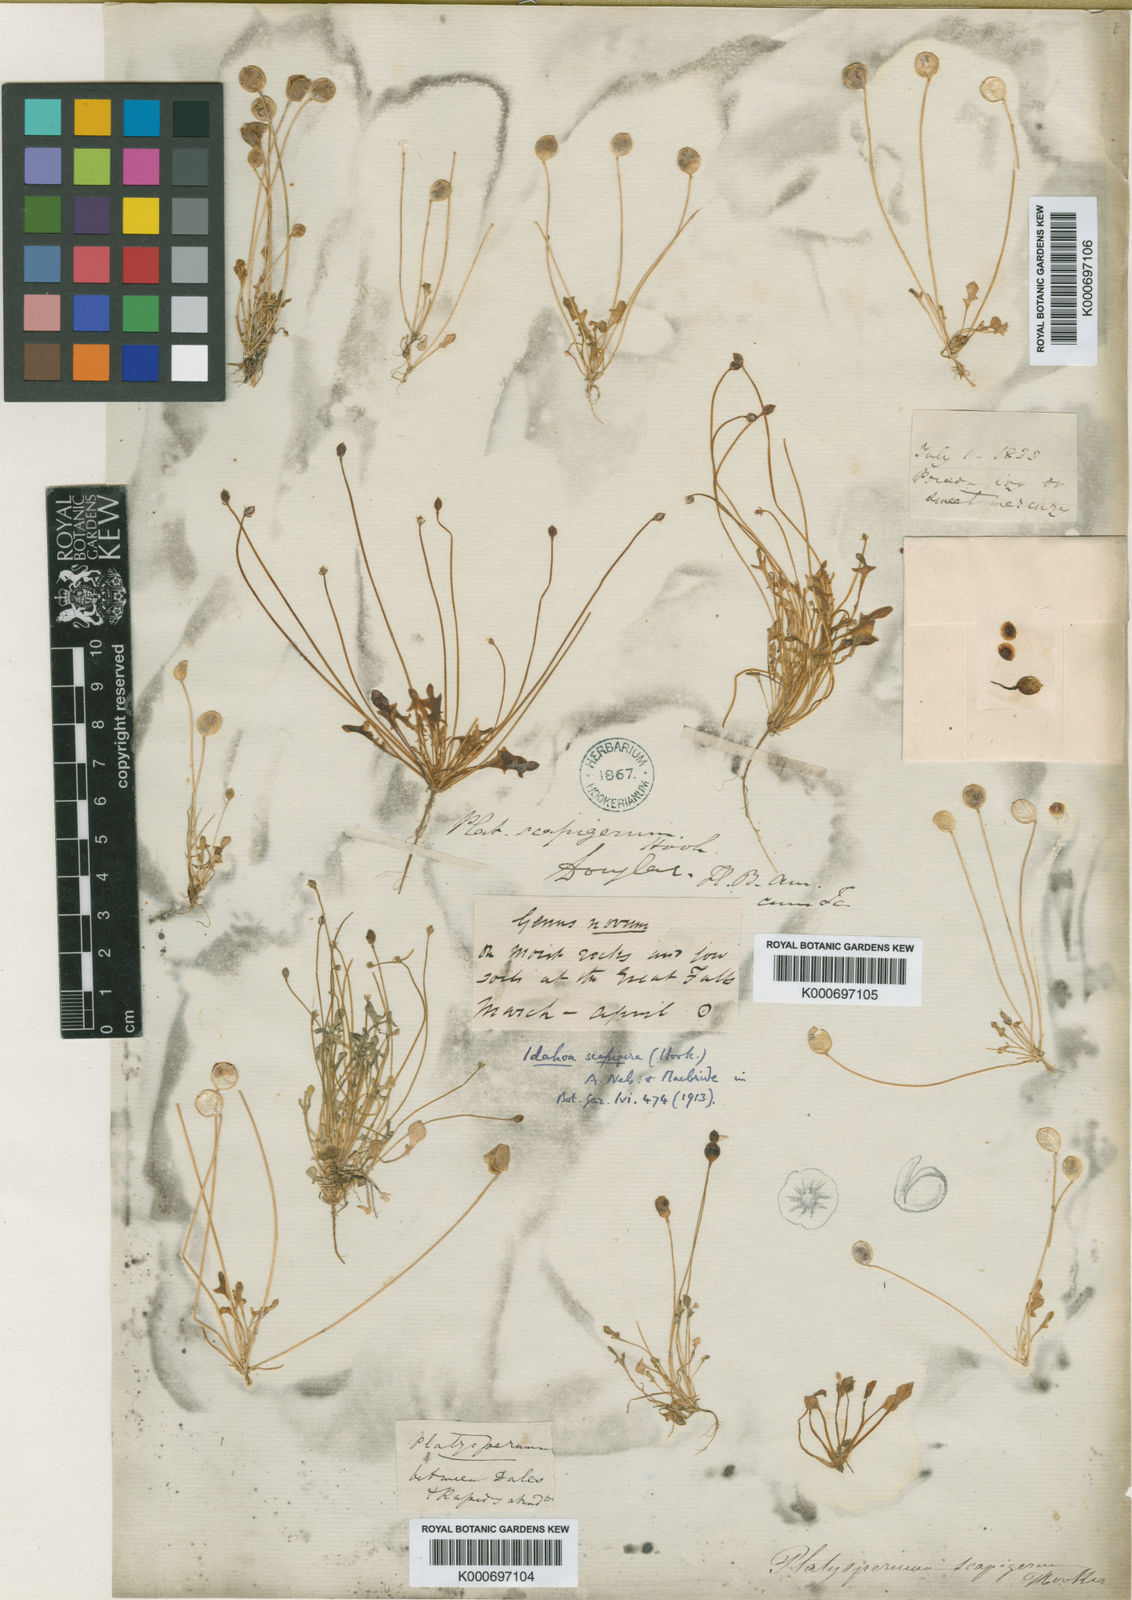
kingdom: Plantae
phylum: Tracheophyta
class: Magnoliopsida
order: Brassicales
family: Brassicaceae
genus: Idahoa
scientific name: Idahoa scapigera
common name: Scalepod
